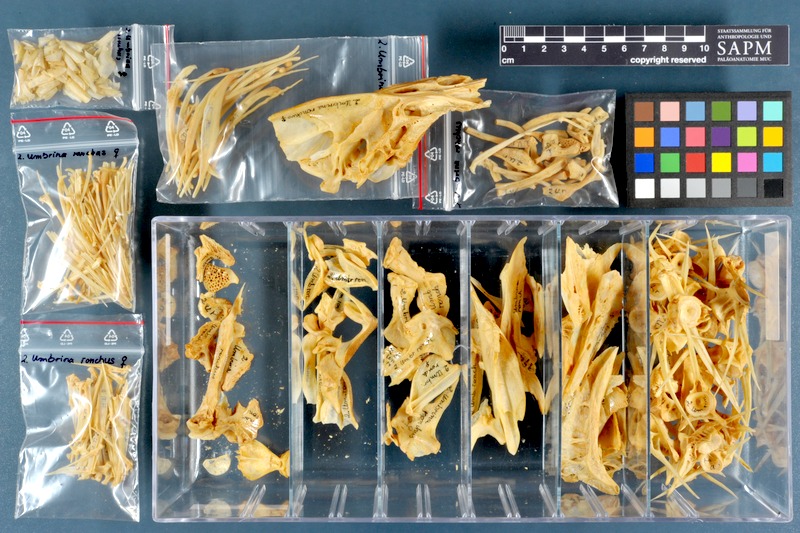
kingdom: Animalia
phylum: Chordata
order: Perciformes
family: Sciaenidae
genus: Umbrina
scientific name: Umbrina ronchus
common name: Slender baardman
